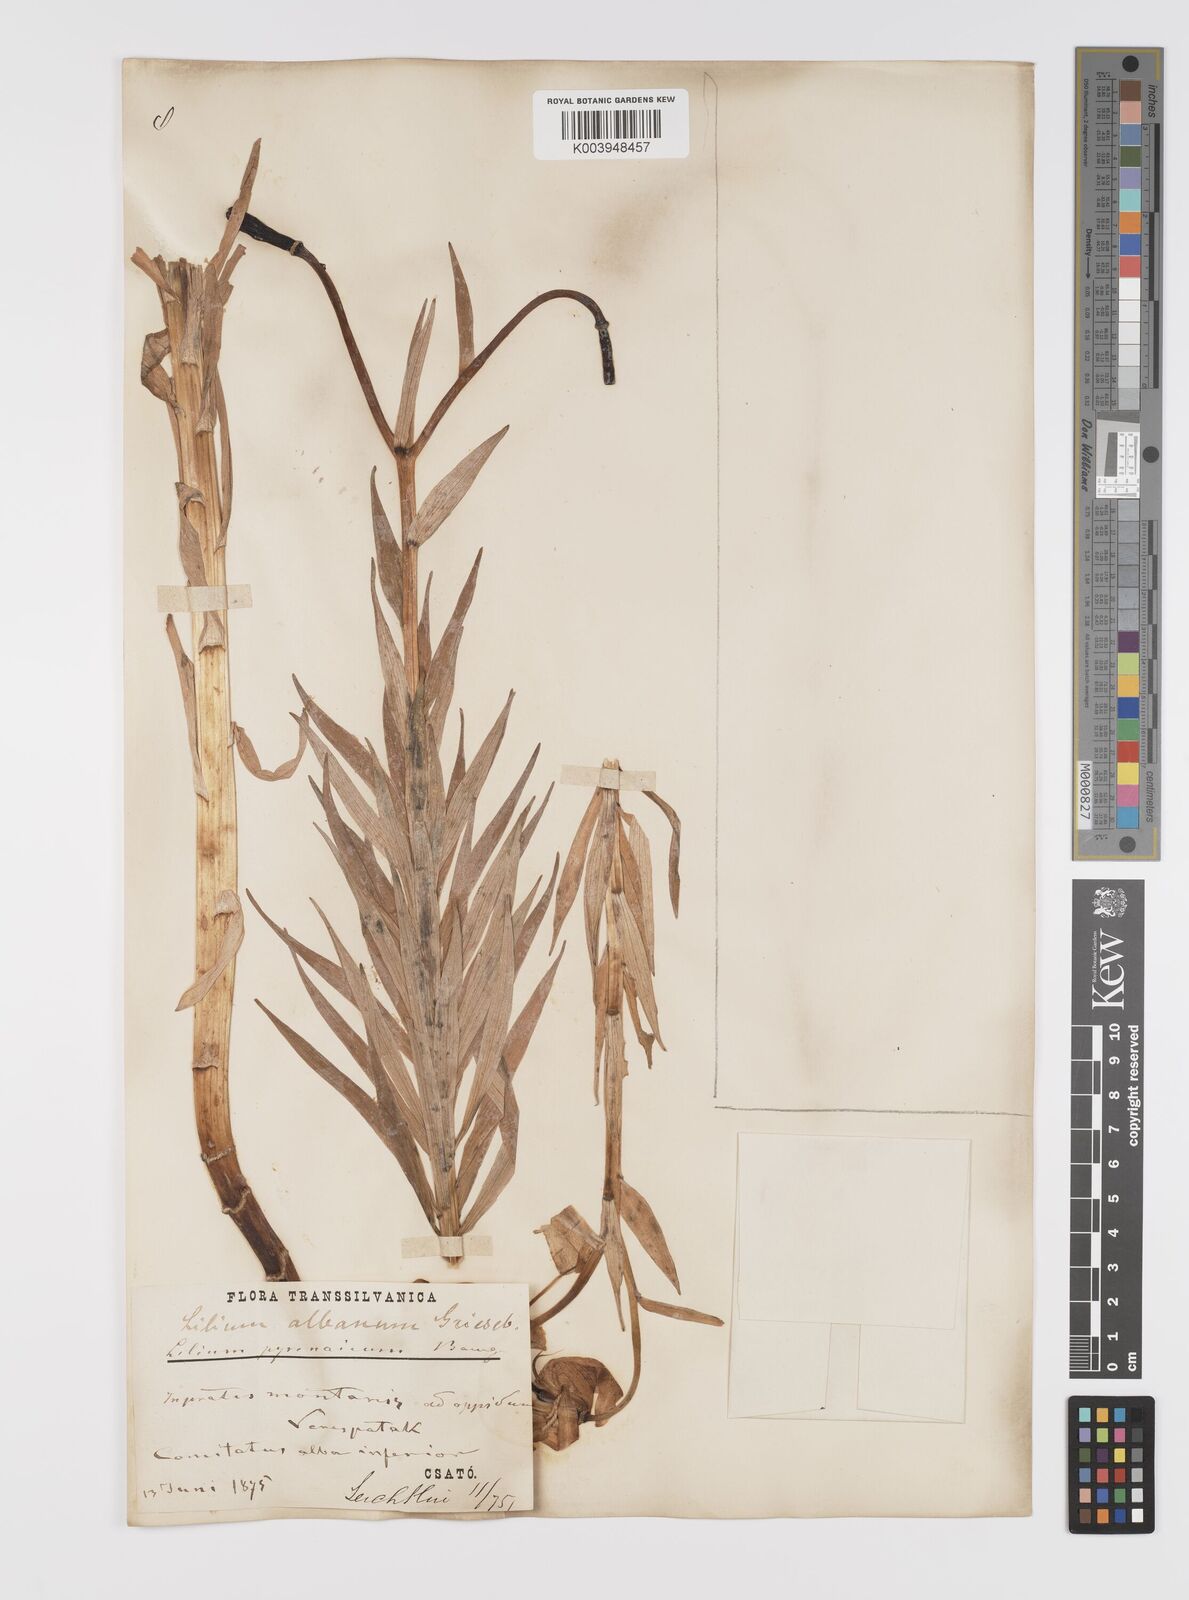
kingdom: Plantae
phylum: Tracheophyta
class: Liliopsida
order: Liliales
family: Liliaceae
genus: Lilium
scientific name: Lilium jankae
